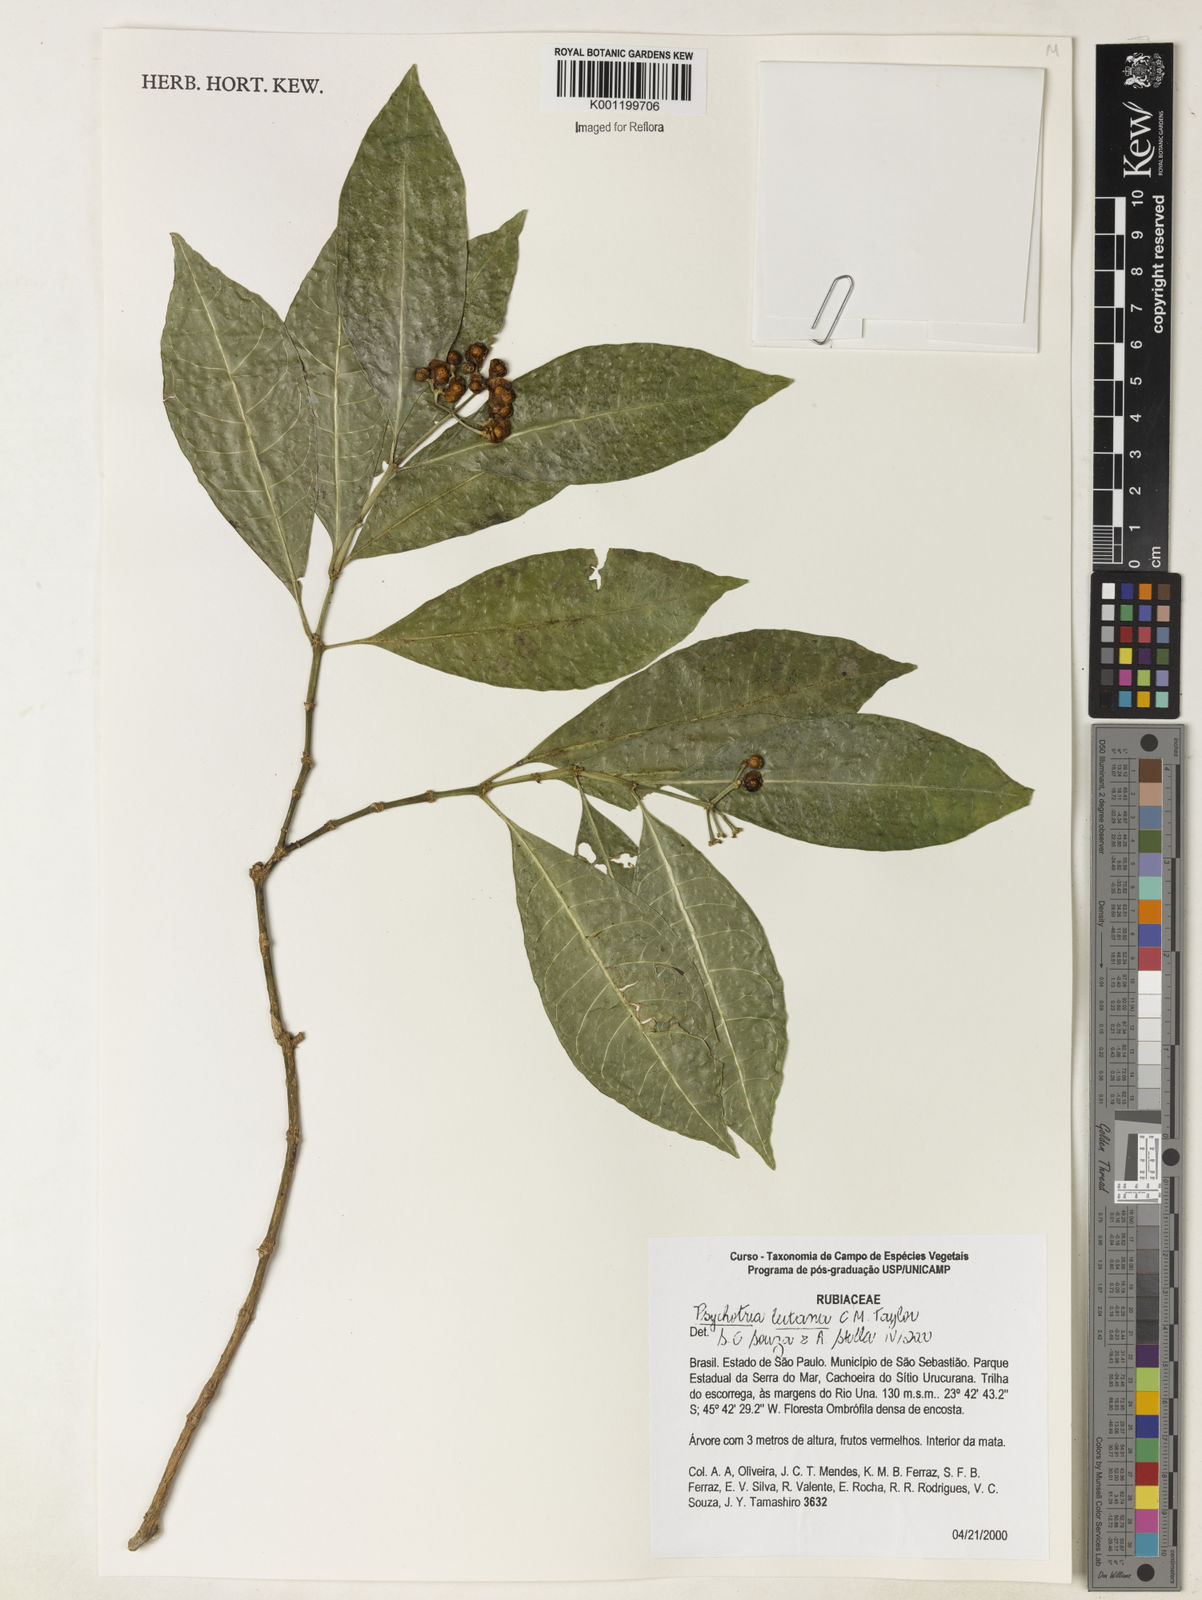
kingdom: Plantae
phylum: Tracheophyta
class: Magnoliopsida
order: Gentianales
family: Rubiaceae
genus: Psychotria
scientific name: Psychotria leitana
